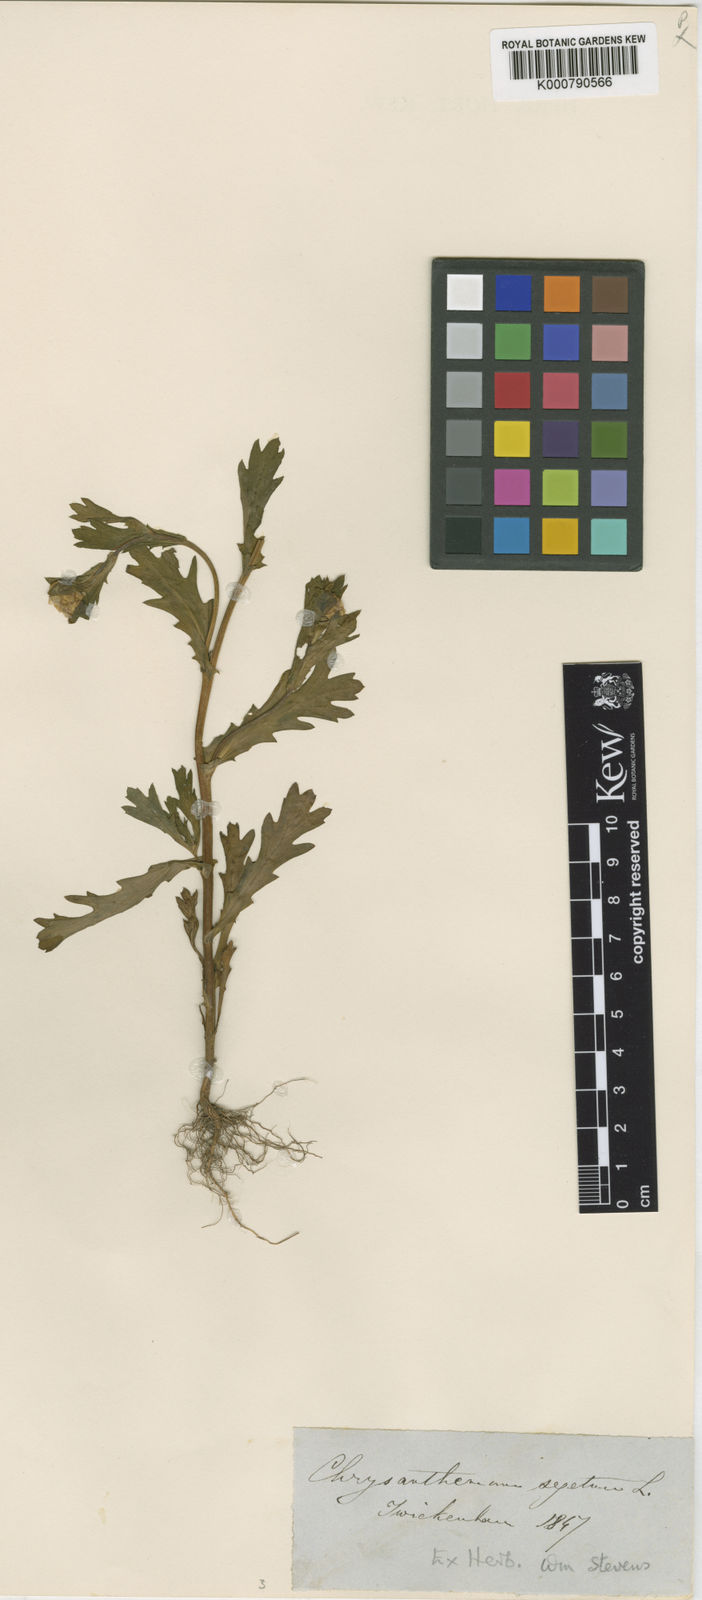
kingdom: Plantae
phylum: Tracheophyta
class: Magnoliopsida
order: Asterales
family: Asteraceae
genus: Glebionis
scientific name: Glebionis
